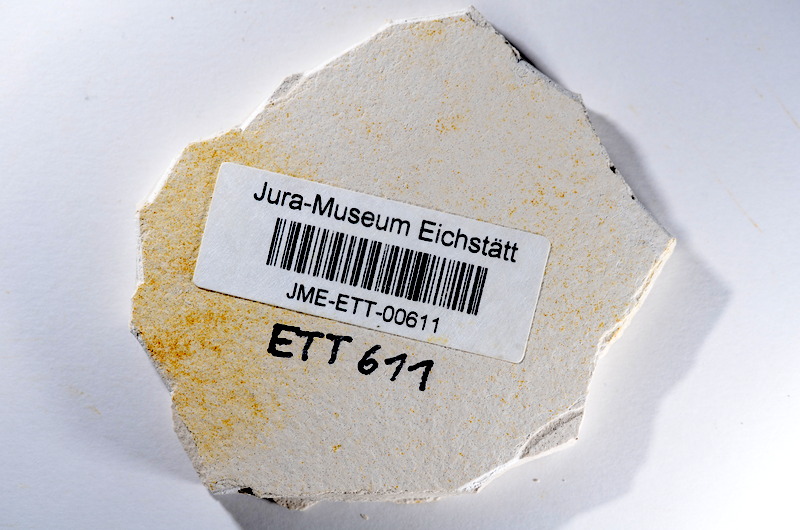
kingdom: Animalia
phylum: Chordata
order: Salmoniformes
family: Orthogonikleithridae
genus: Orthogonikleithrus
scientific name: Orthogonikleithrus hoelli
